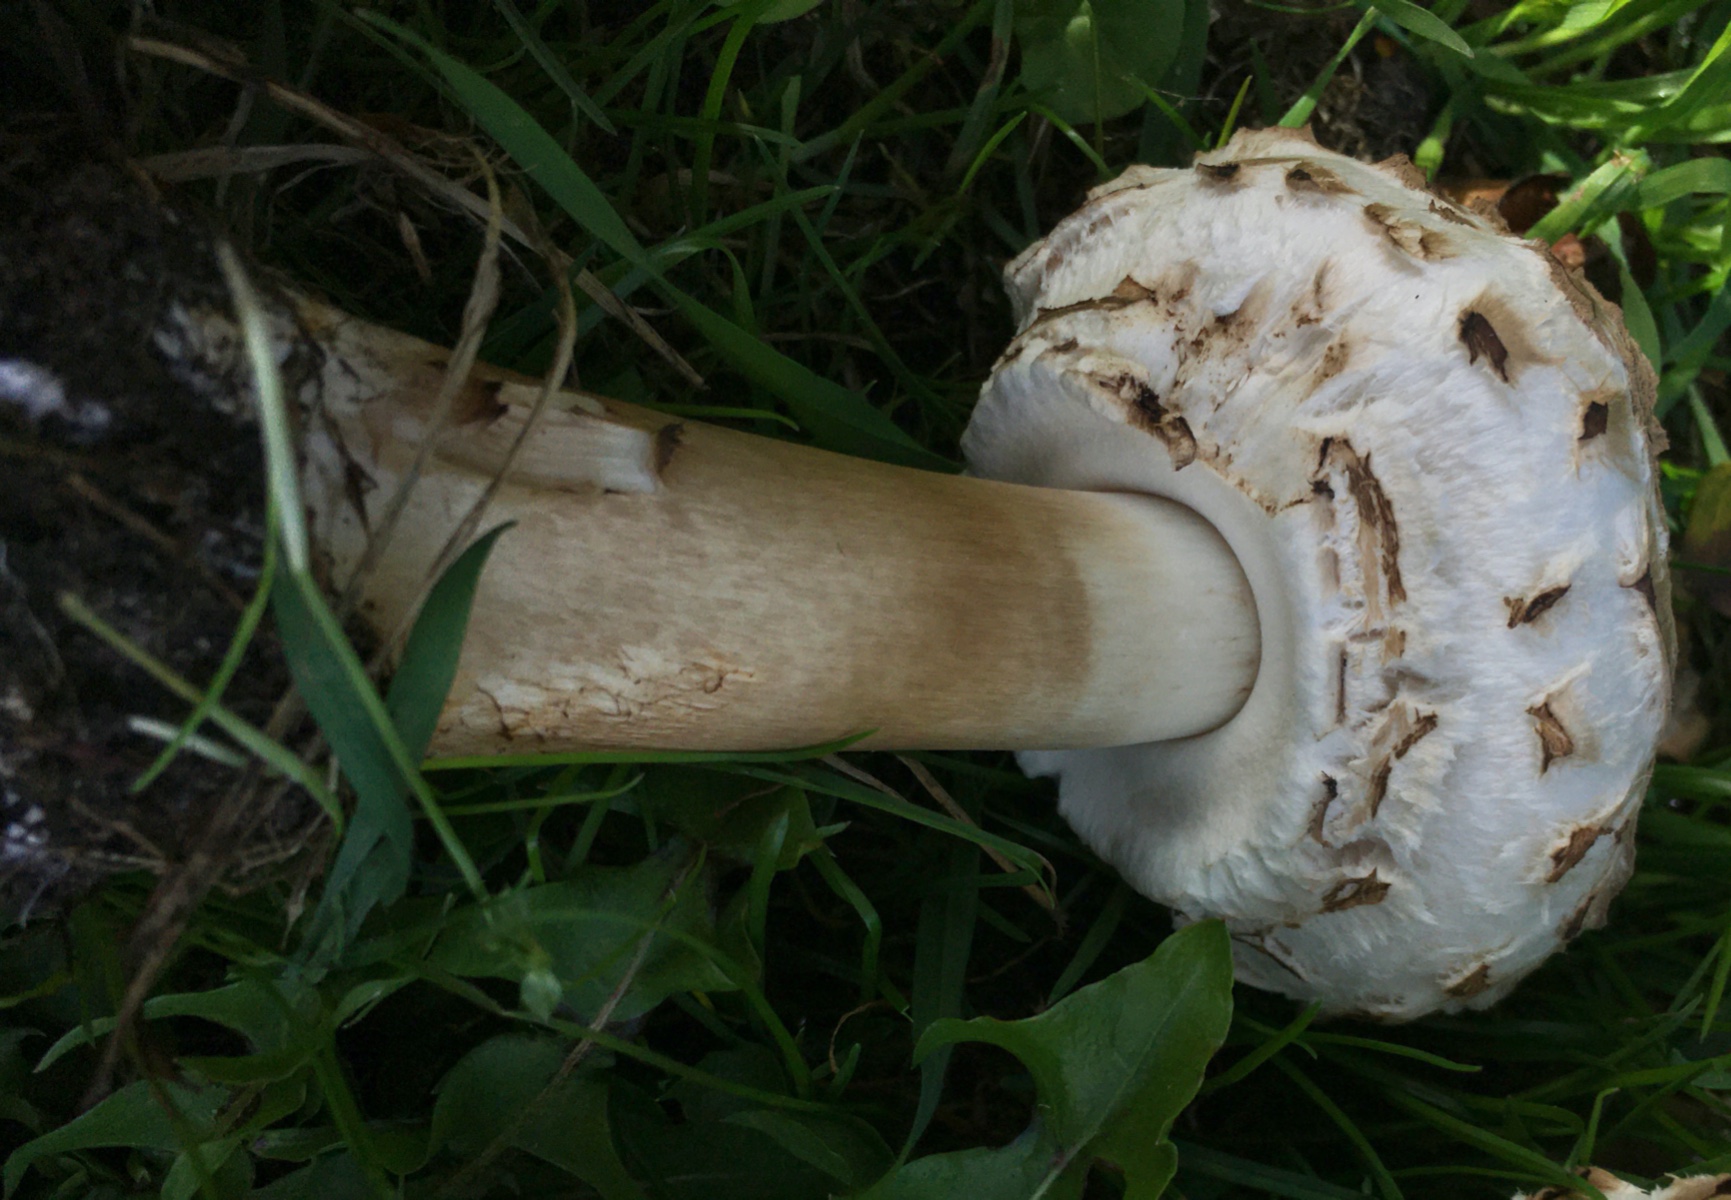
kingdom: Fungi
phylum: Basidiomycota
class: Agaricomycetes
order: Agaricales
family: Agaricaceae
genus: Chlorophyllum
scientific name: Chlorophyllum rhacodes
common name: ægte rabarberhat
